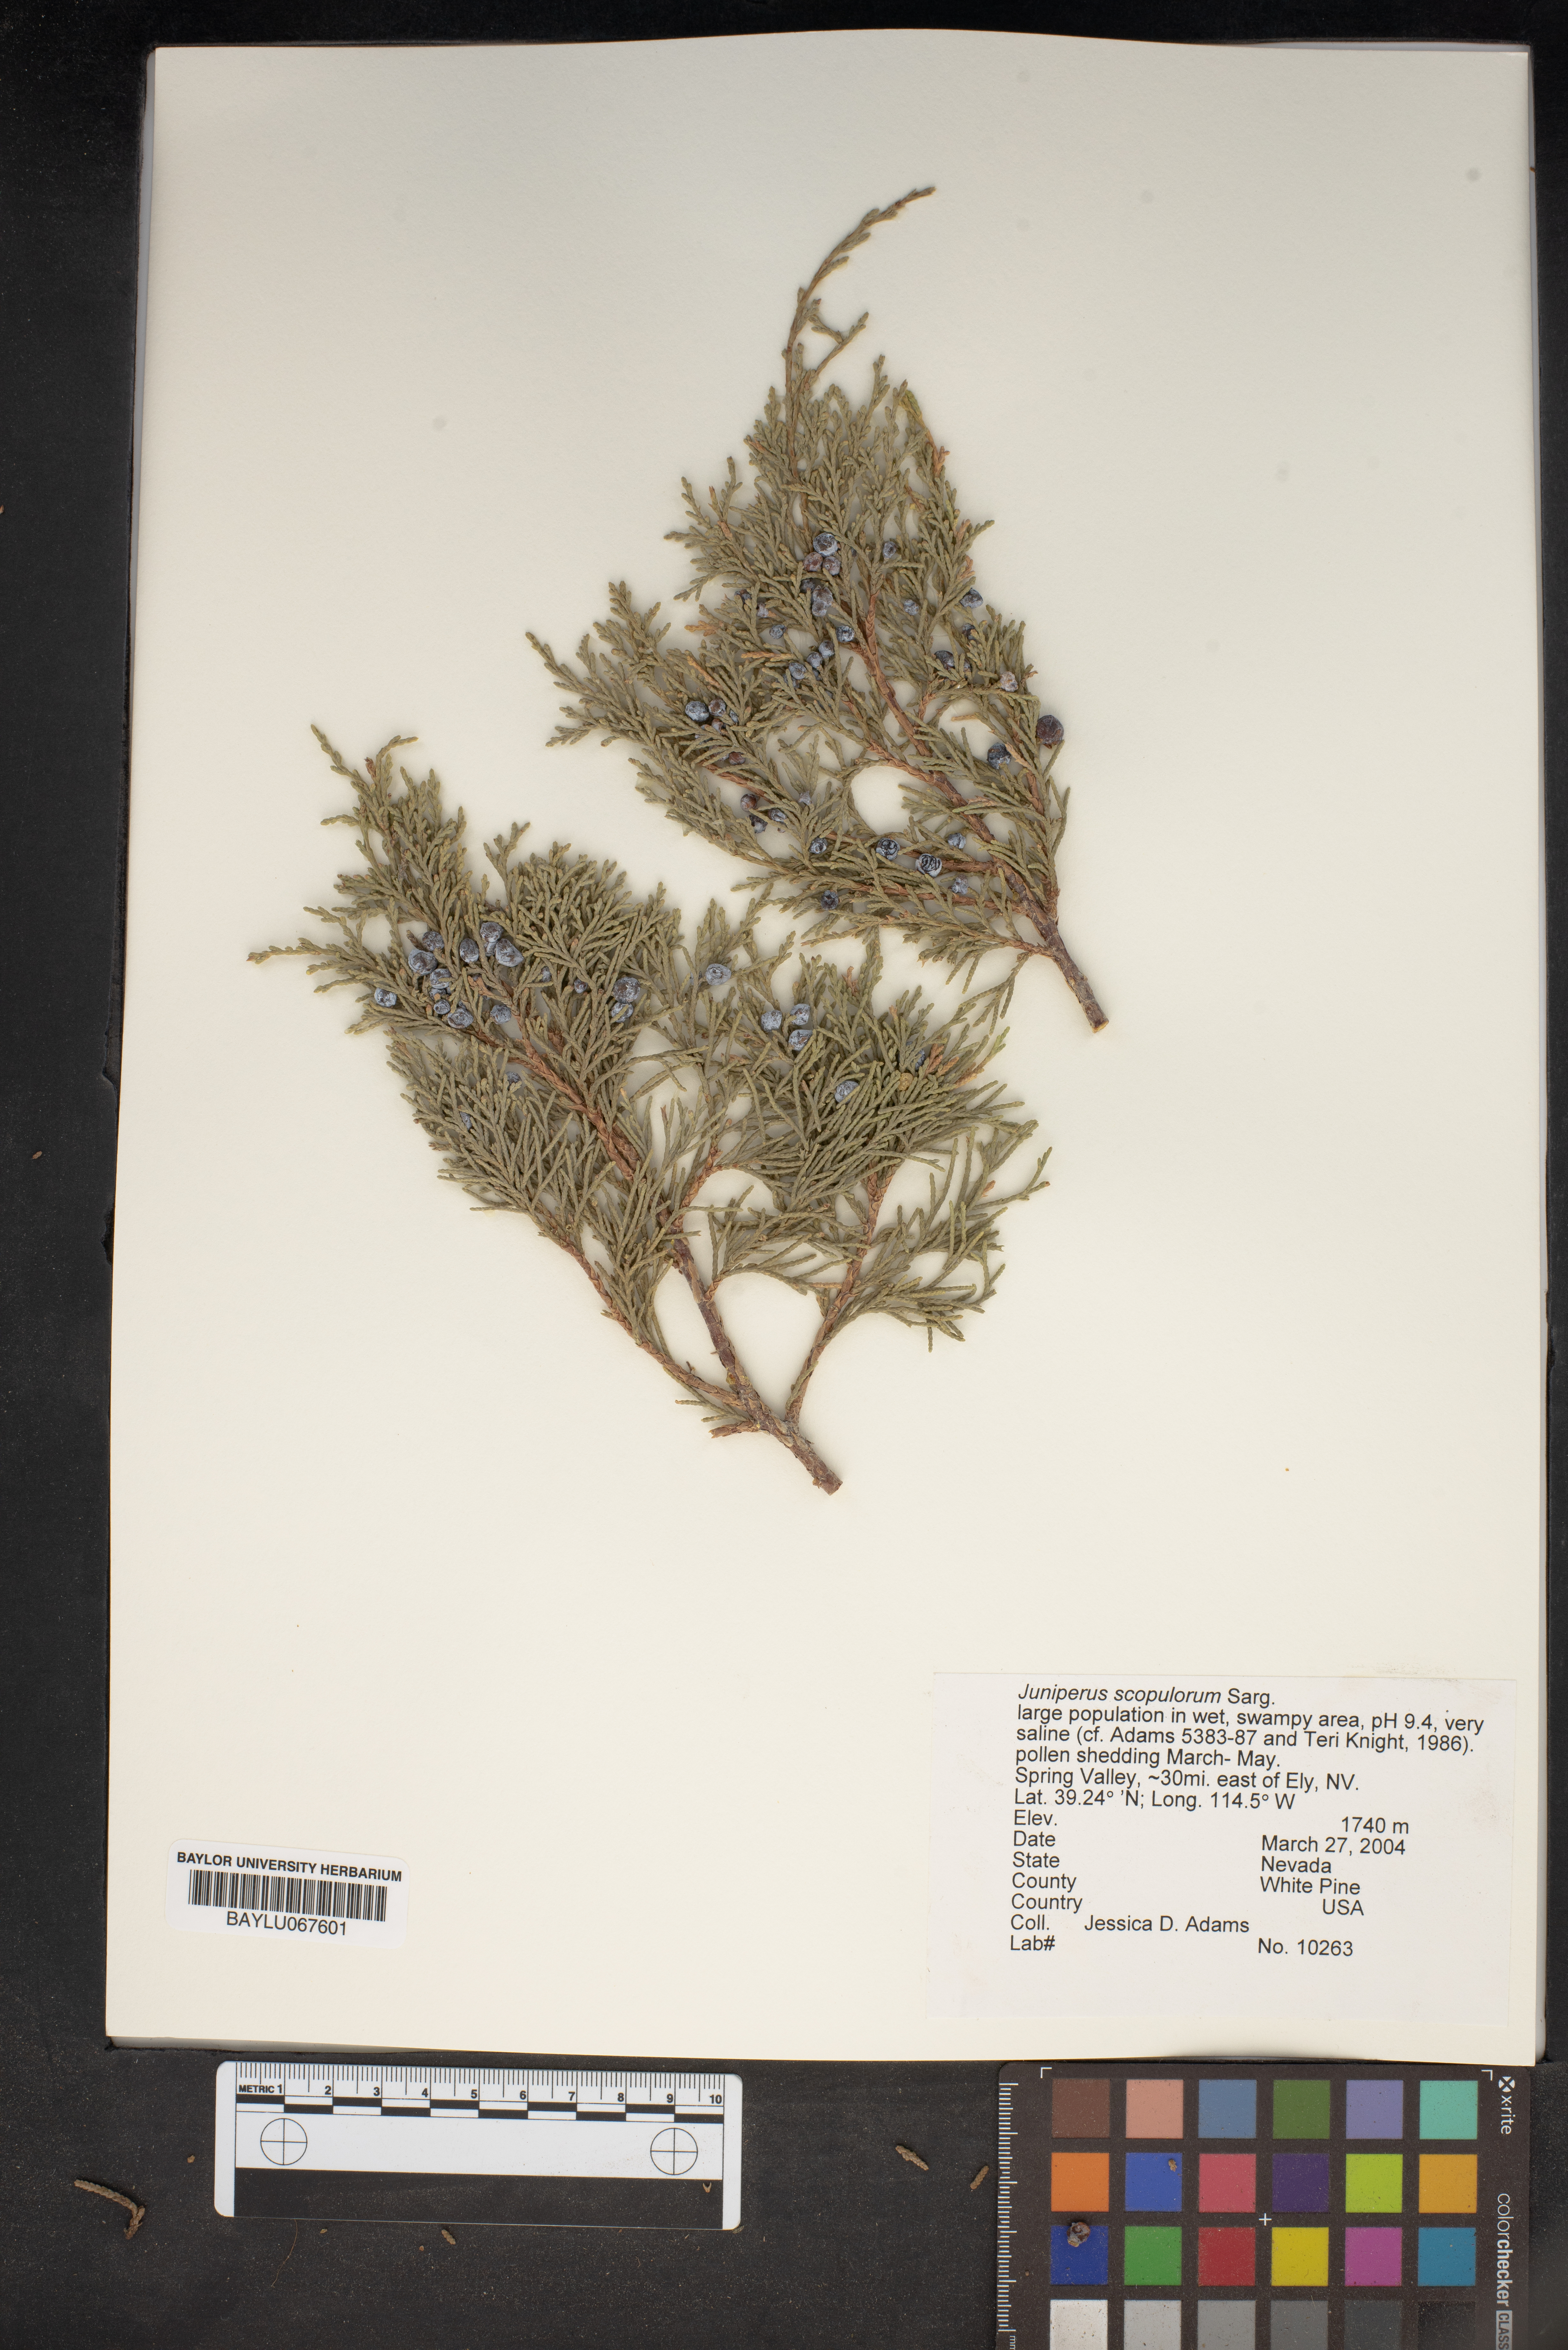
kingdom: Plantae
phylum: Tracheophyta
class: Pinopsida
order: Pinales
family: Cupressaceae
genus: Juniperus
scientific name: Juniperus scopulorum
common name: Rocky mountain juniper
